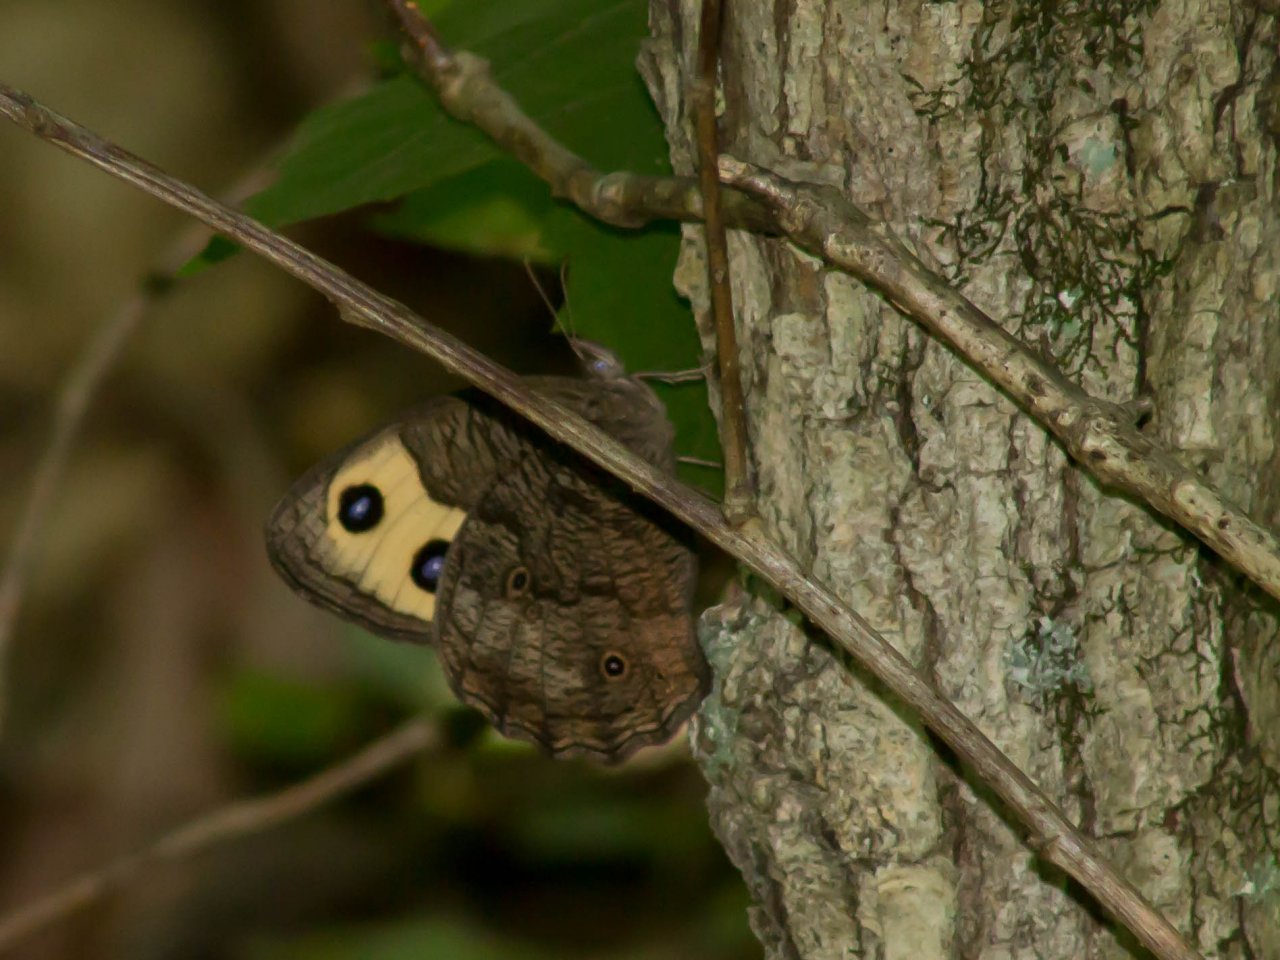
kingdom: Animalia
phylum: Arthropoda
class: Insecta
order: Lepidoptera
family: Nymphalidae
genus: Cercyonis
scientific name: Cercyonis pegala
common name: Common Wood-Nymph
